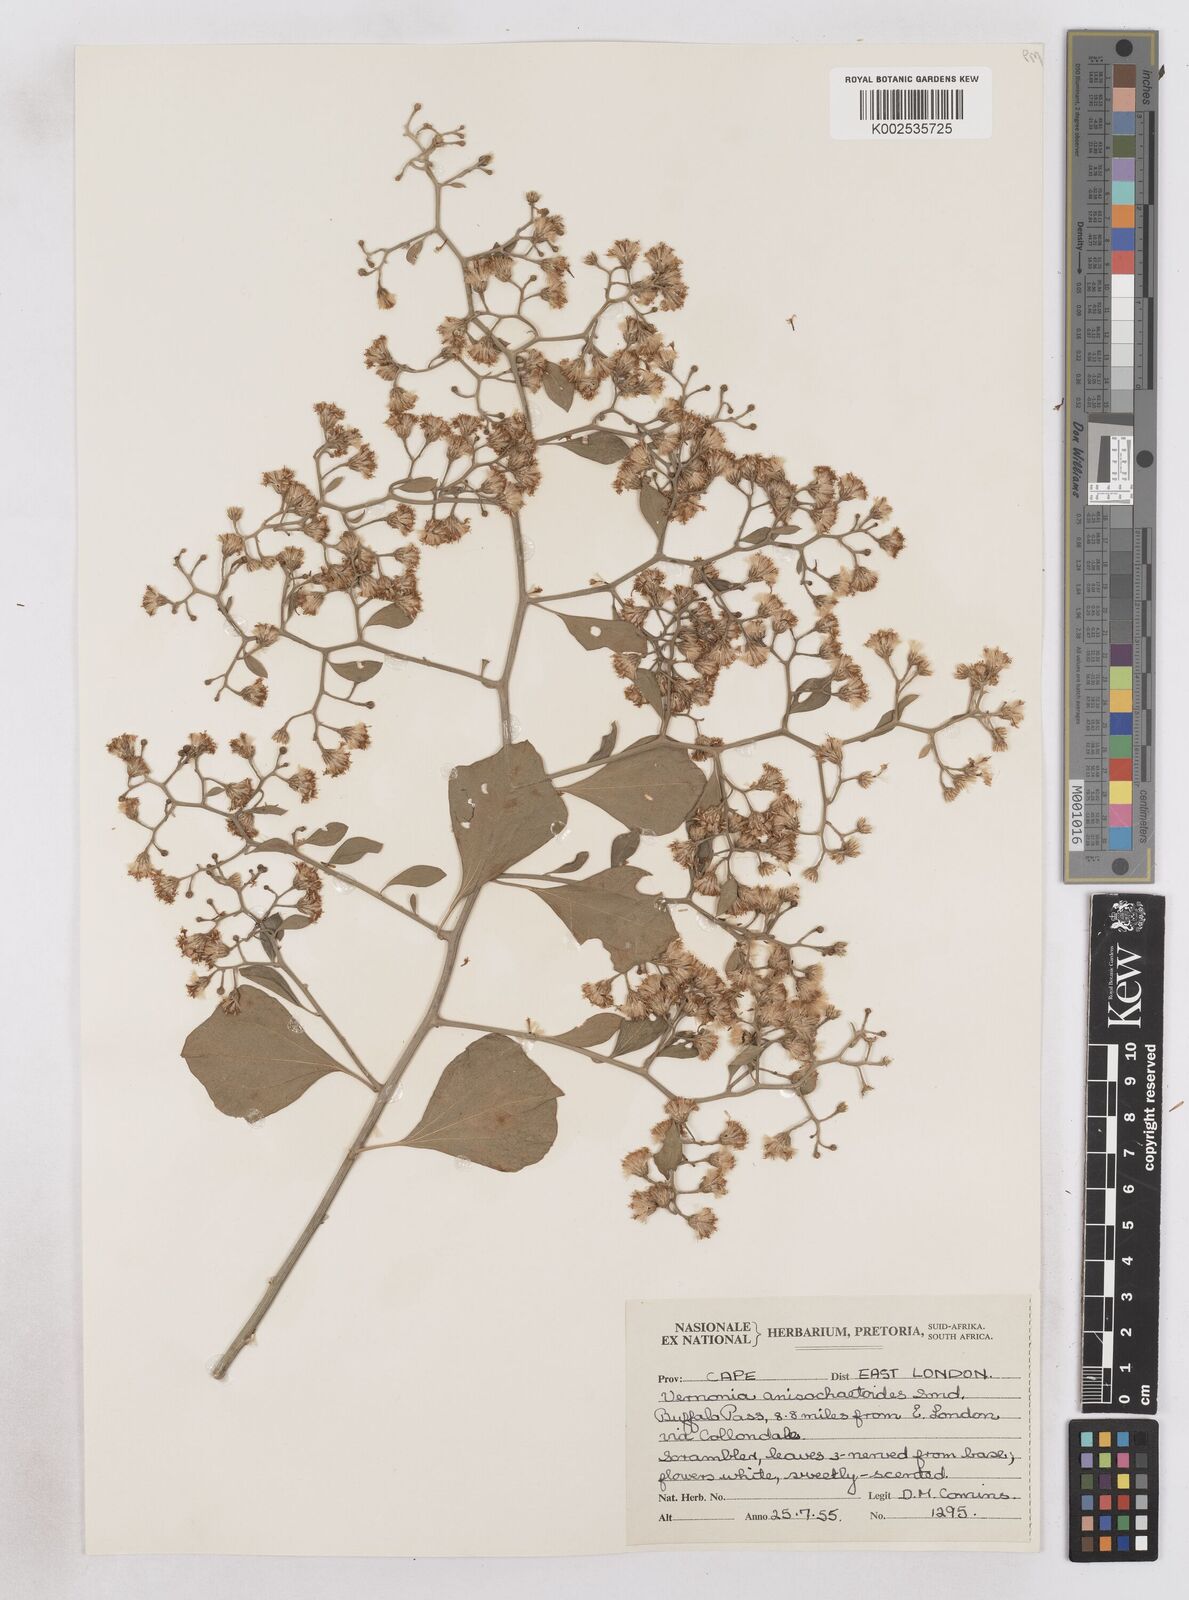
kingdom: Plantae
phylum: Tracheophyta
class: Magnoliopsida
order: Asterales
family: Asteraceae
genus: Distephanus
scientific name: Distephanus anisochaetoides
